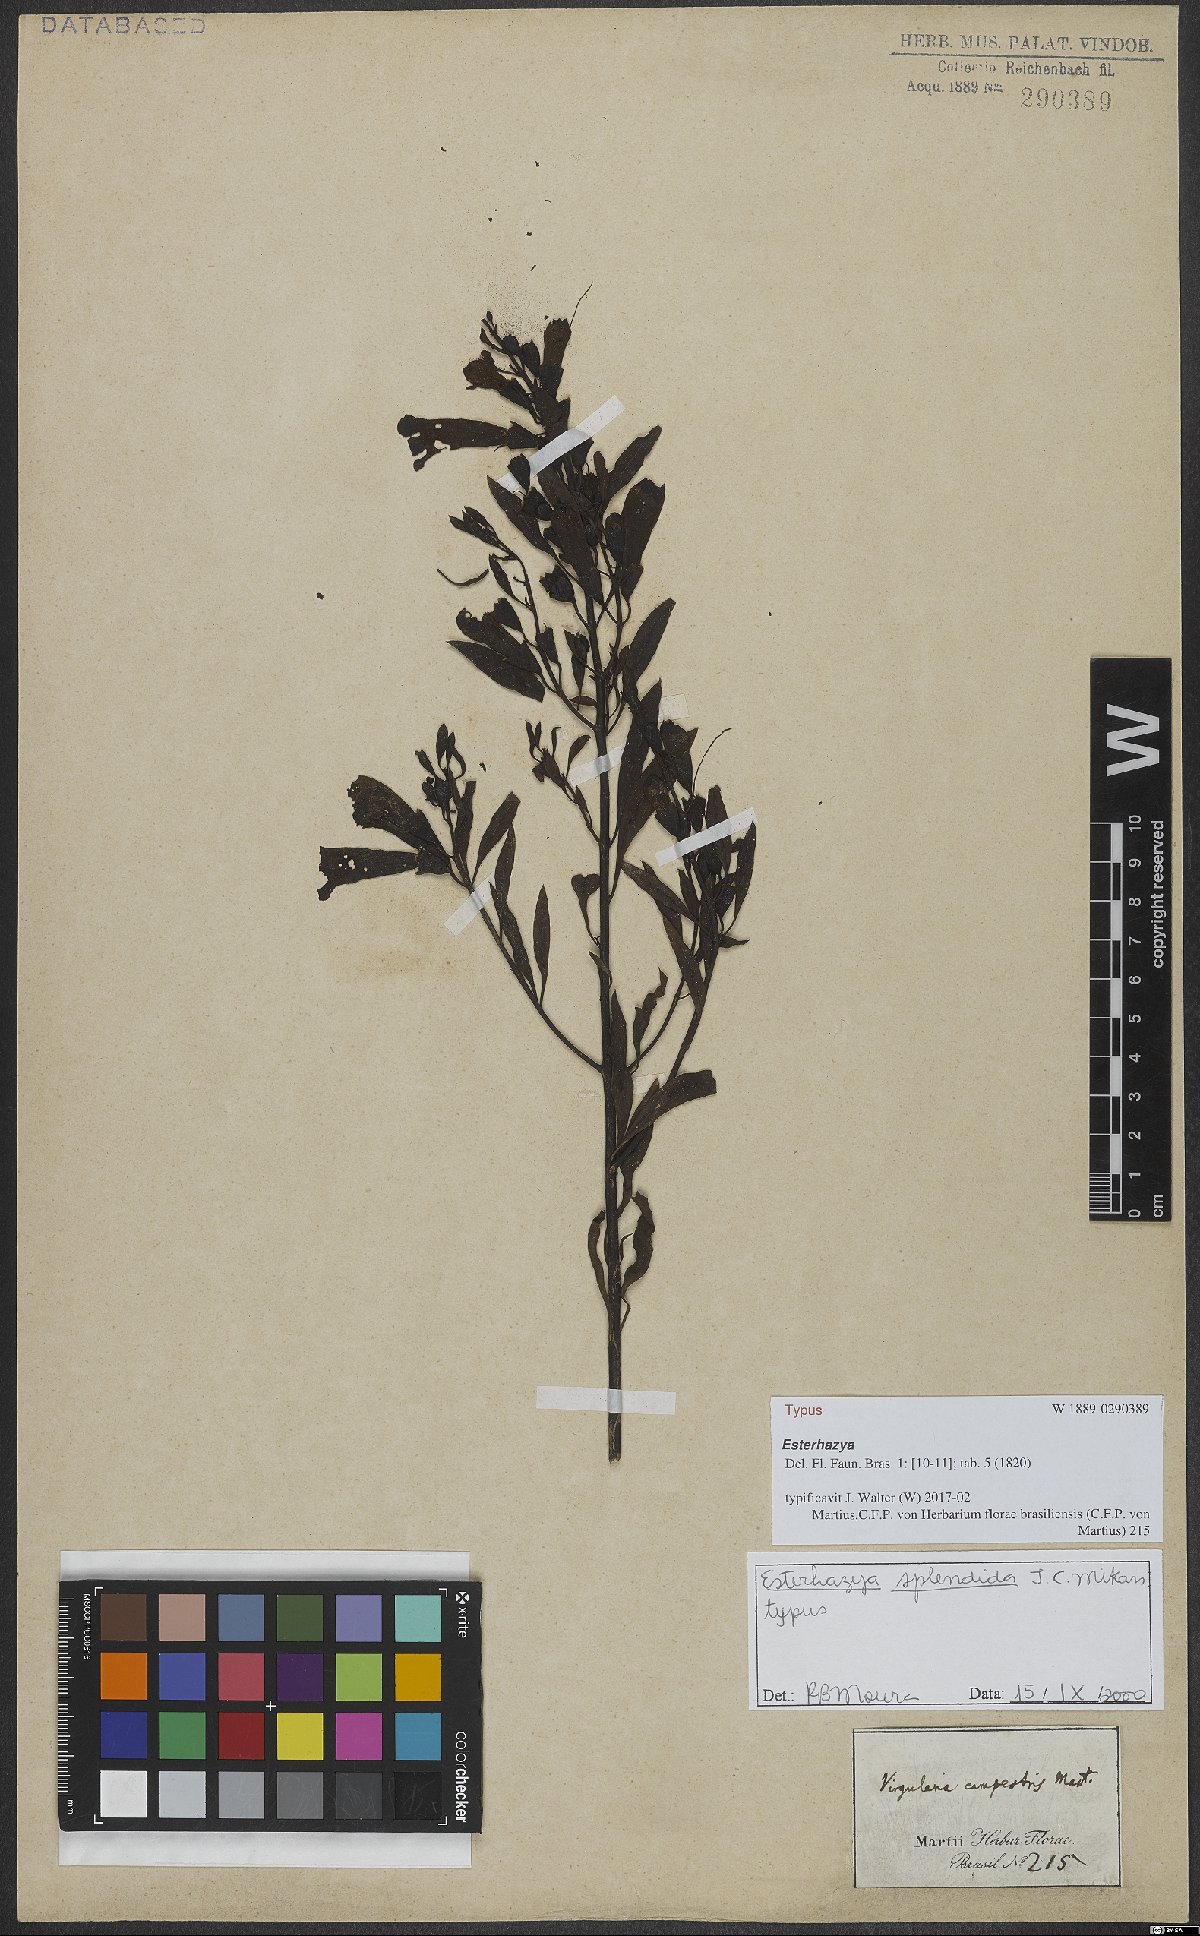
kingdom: Plantae
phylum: Tracheophyta
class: Magnoliopsida
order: Lamiales
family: Orobanchaceae
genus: Esterhazya
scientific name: Esterhazya splendida
